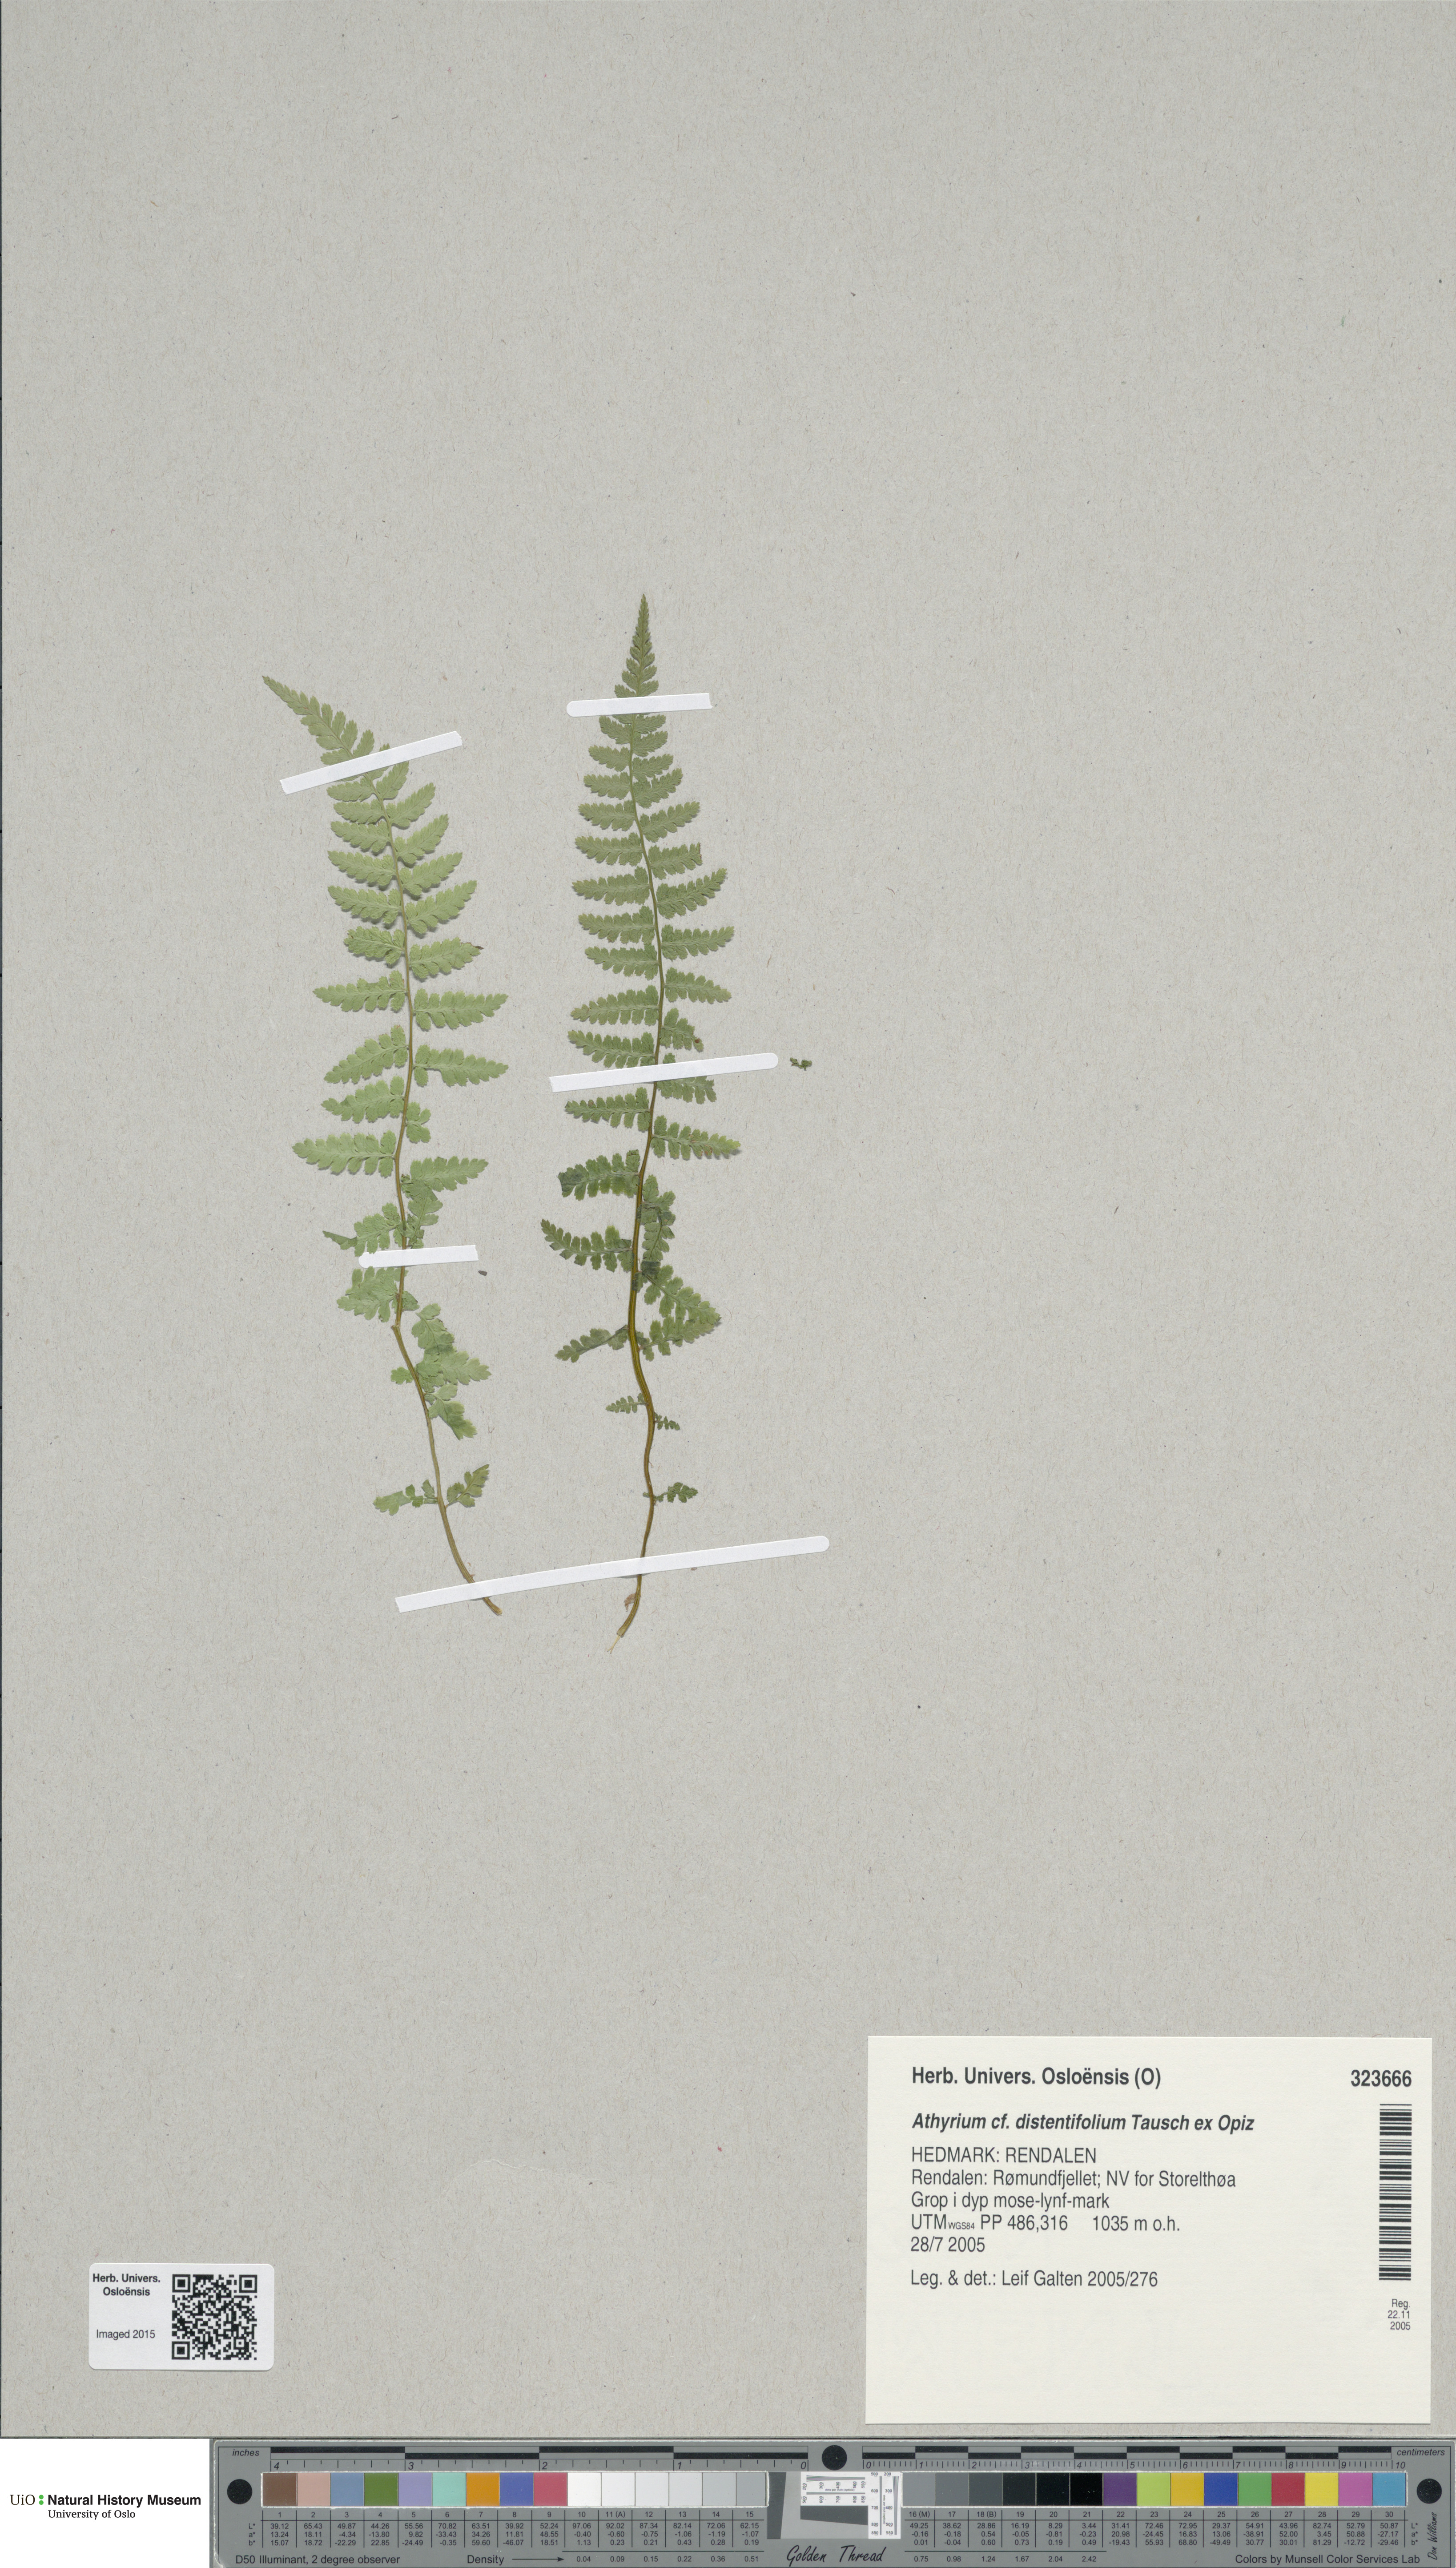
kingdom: Plantae
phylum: Tracheophyta
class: Polypodiopsida
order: Polypodiales
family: Athyriaceae
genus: Pseudathyrium
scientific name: Pseudathyrium alpestre
